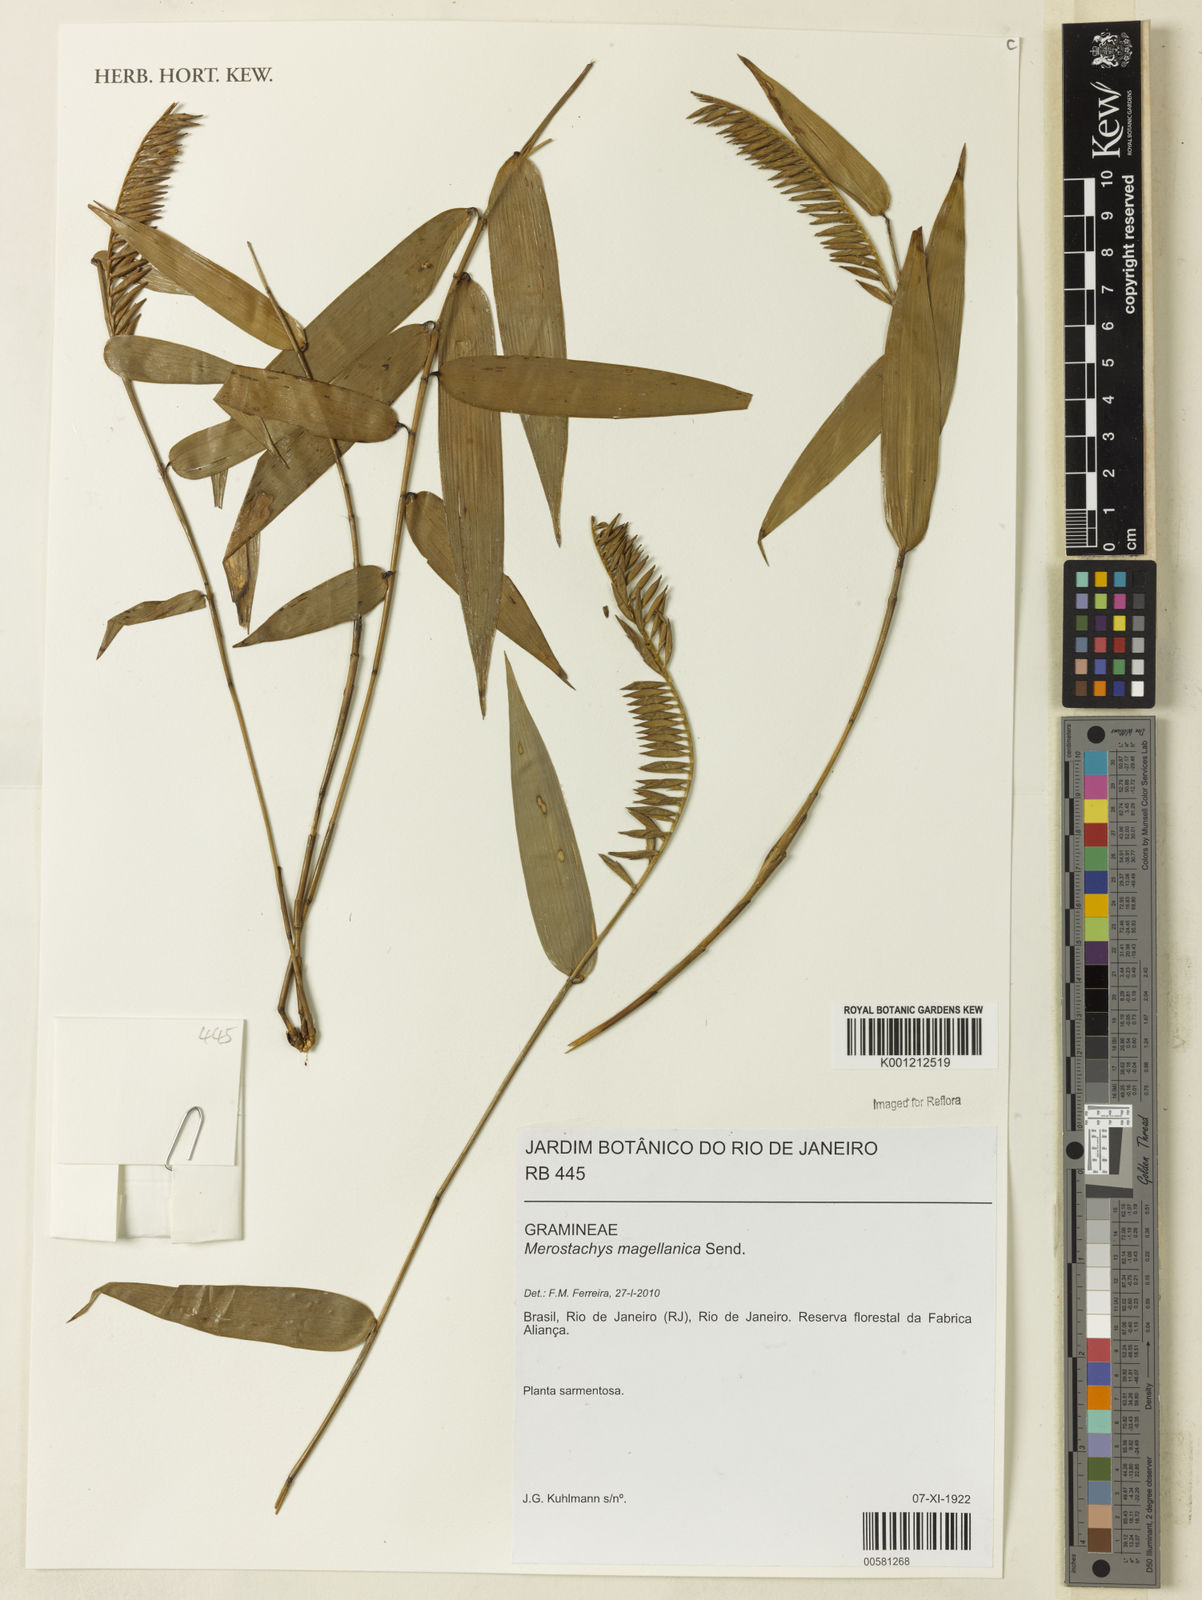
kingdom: Plantae
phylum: Tracheophyta
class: Liliopsida
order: Poales
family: Poaceae
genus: Merostachys
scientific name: Merostachys magellanica
